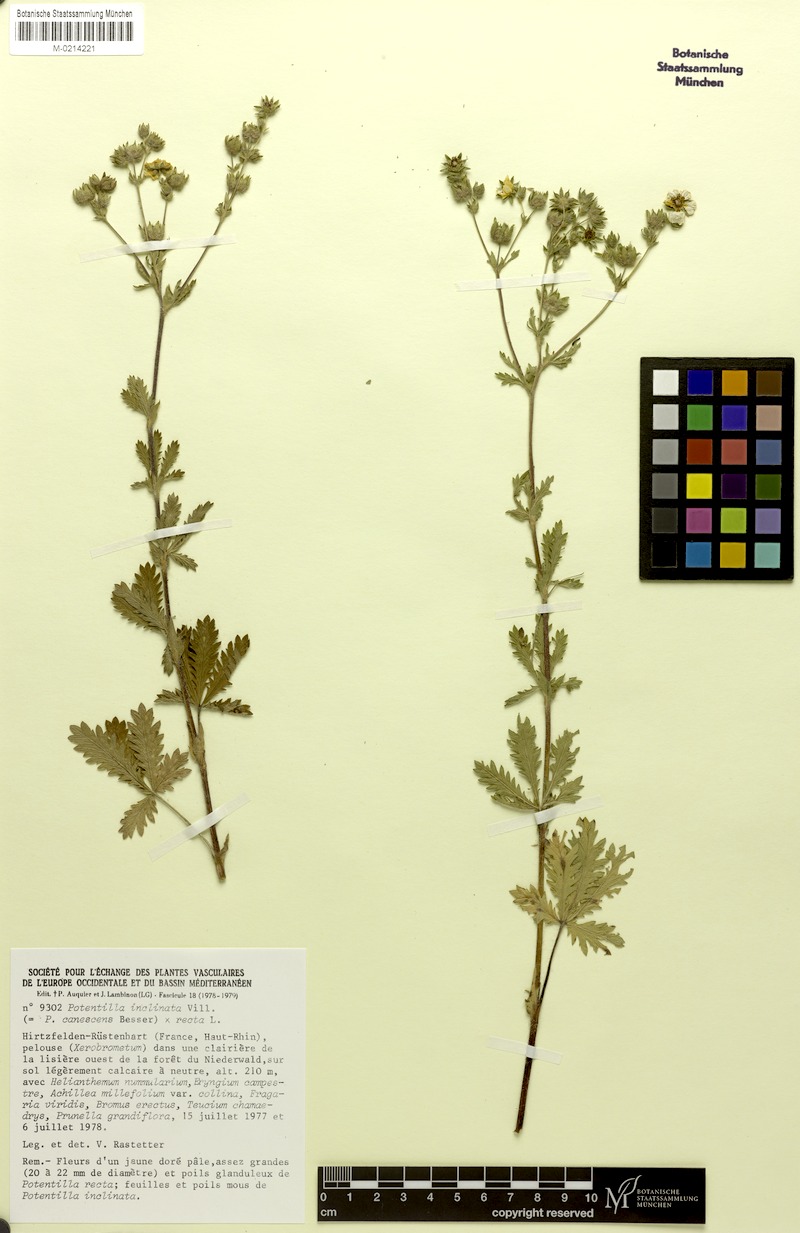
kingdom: Plantae
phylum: Tracheophyta
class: Magnoliopsida
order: Rosales
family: Rosaceae
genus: Potentilla
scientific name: Potentilla
